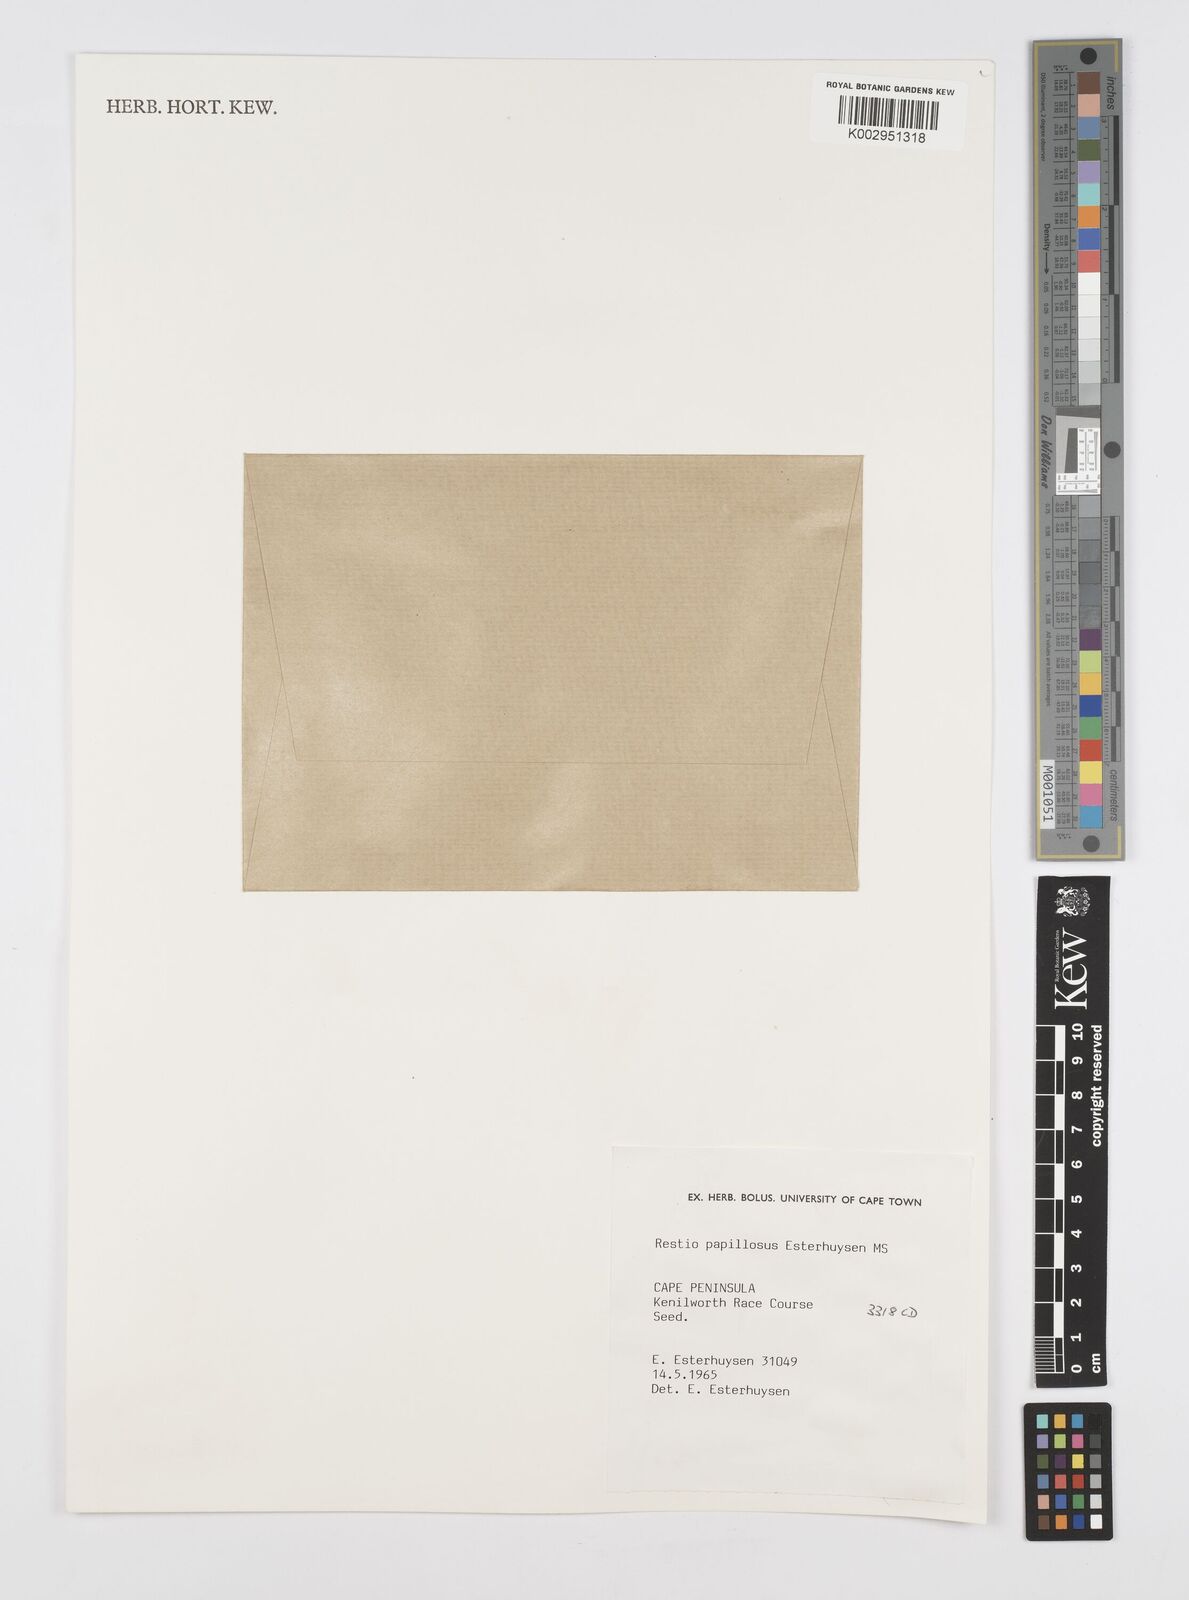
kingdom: Plantae
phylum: Tracheophyta
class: Liliopsida
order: Poales
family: Restionaceae
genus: Restio
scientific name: Restio papillosus
